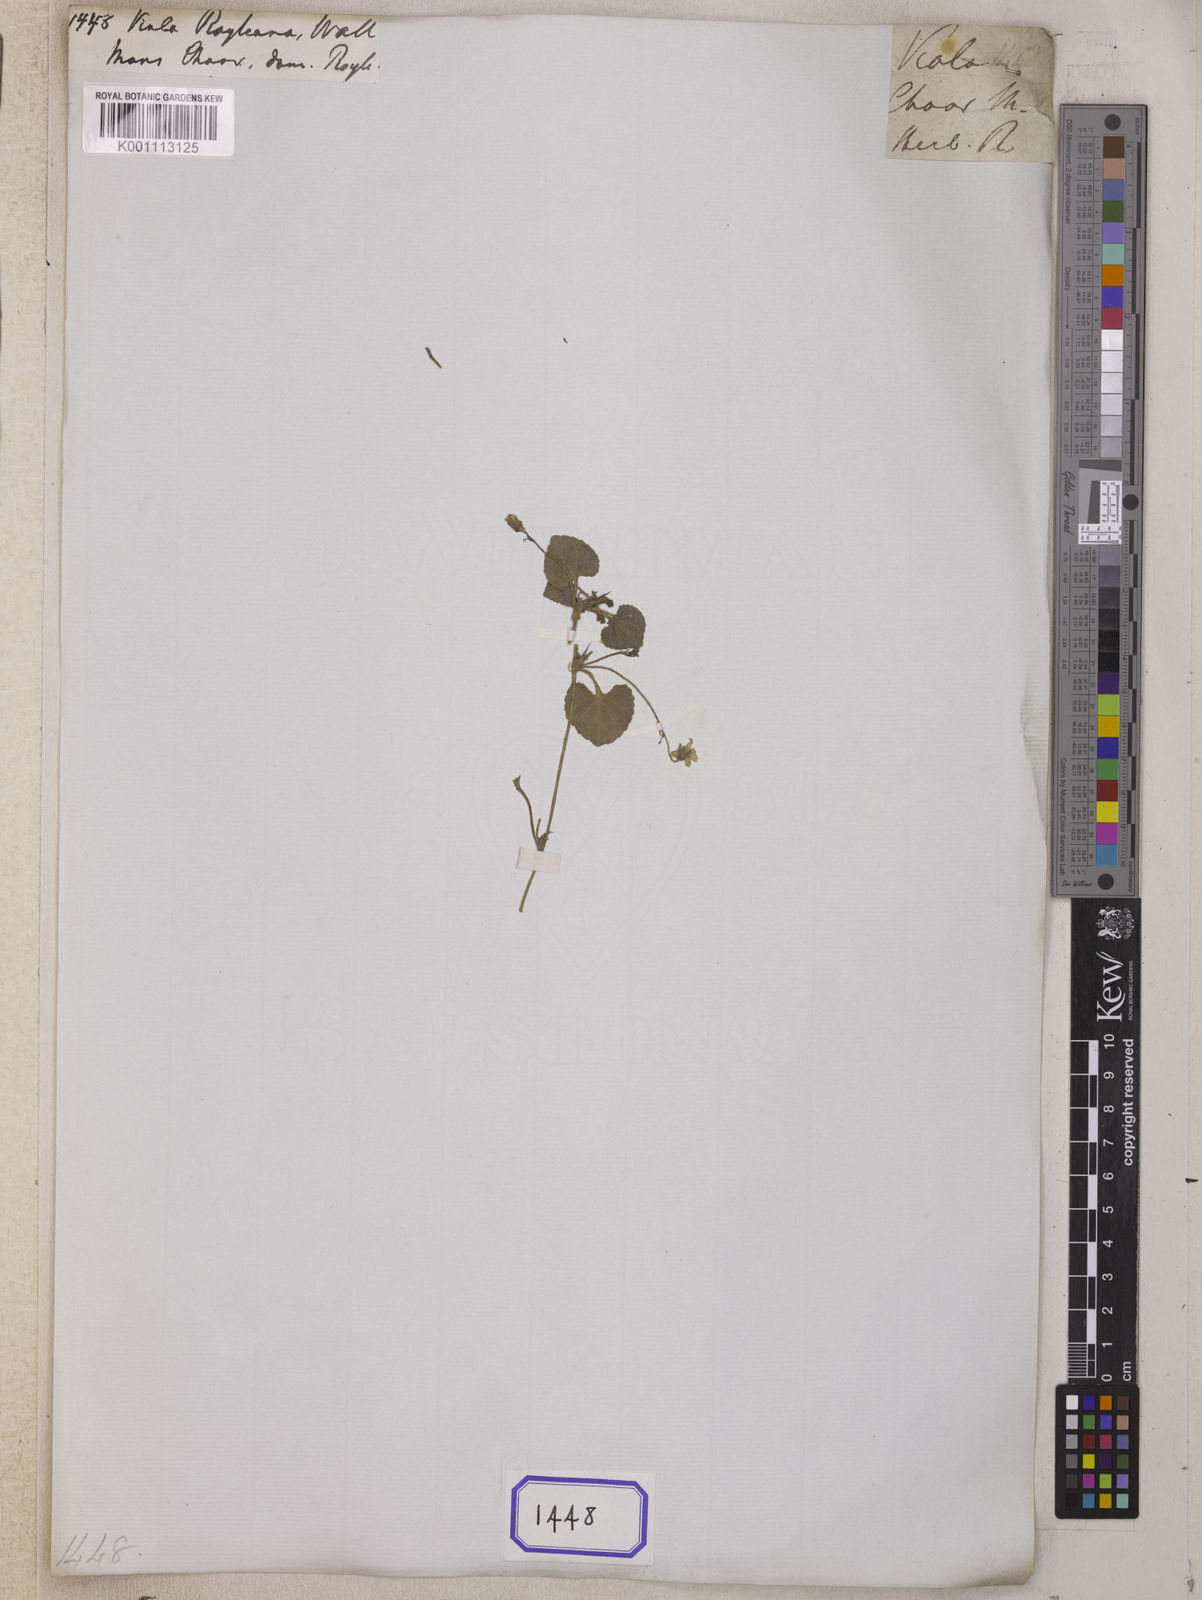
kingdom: Plantae
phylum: Tracheophyta
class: Magnoliopsida
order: Malpighiales
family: Violaceae
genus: Viola
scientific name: Viola pilosa
